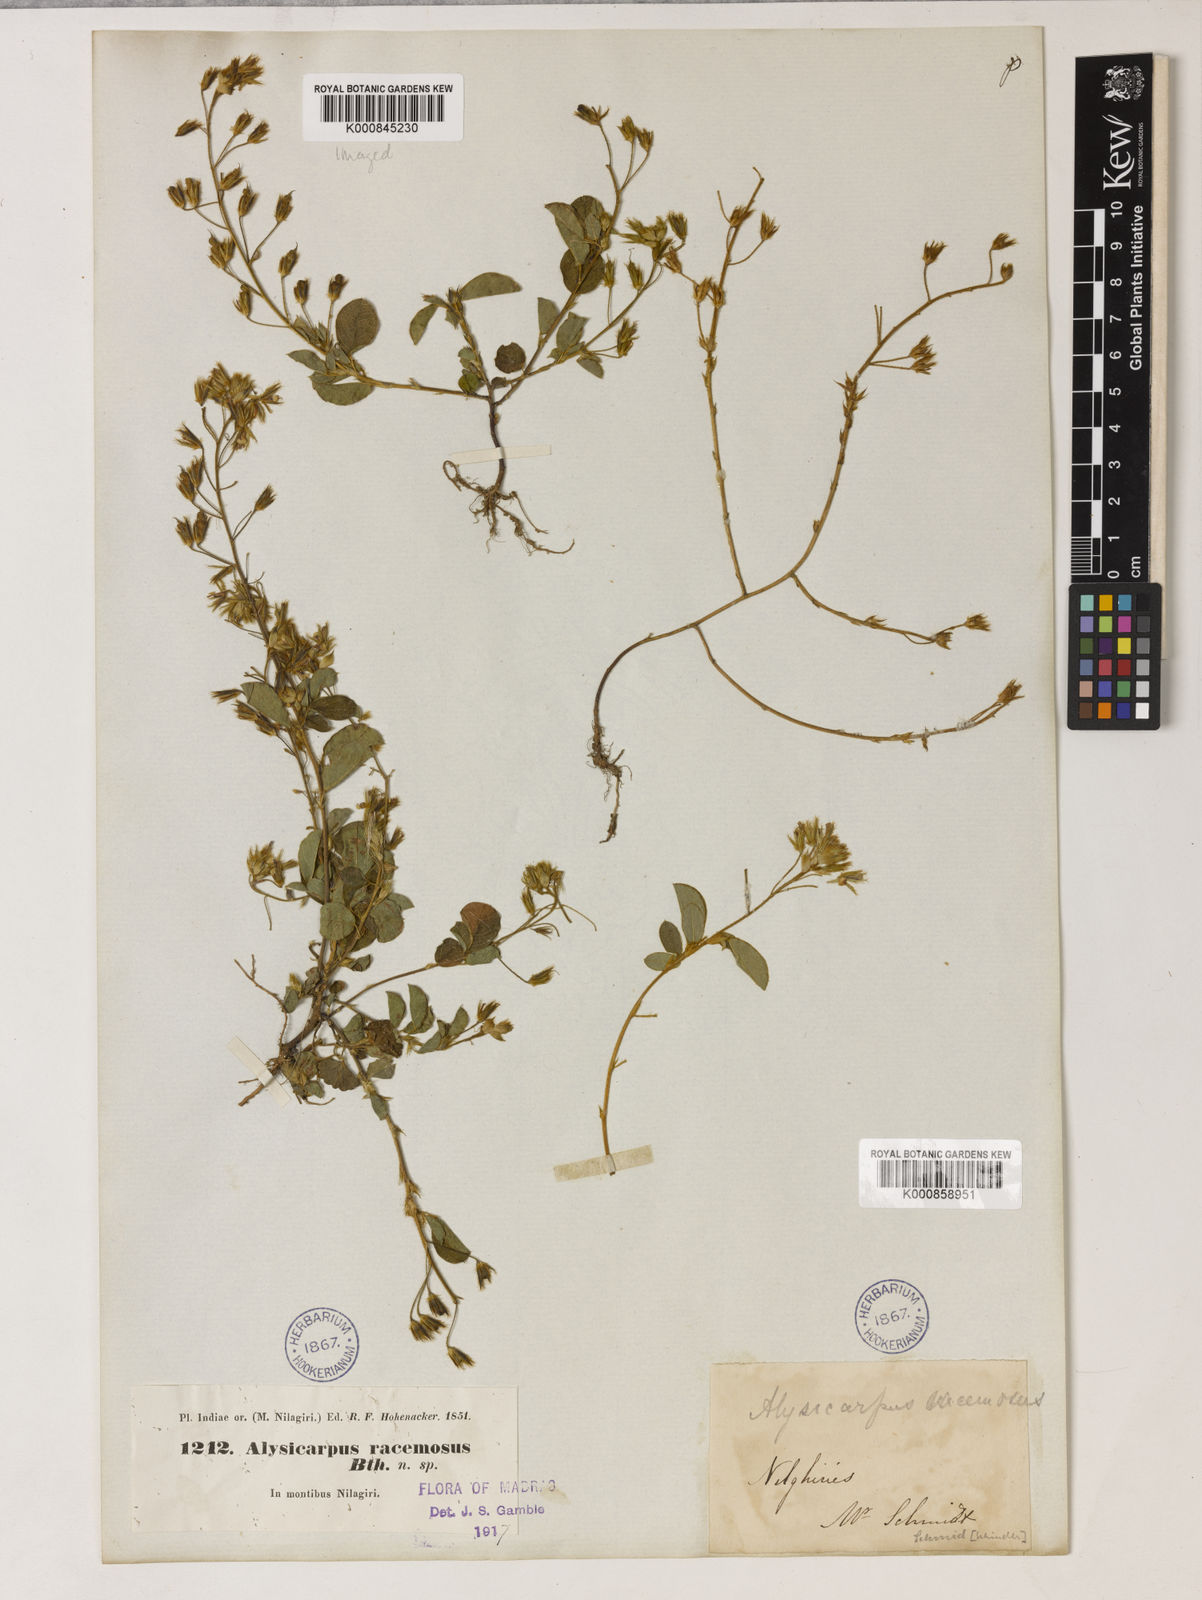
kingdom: Plantae
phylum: Tracheophyta
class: Magnoliopsida
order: Fabales
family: Fabaceae
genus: Alysicarpus
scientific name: Alysicarpus belgaumensis
